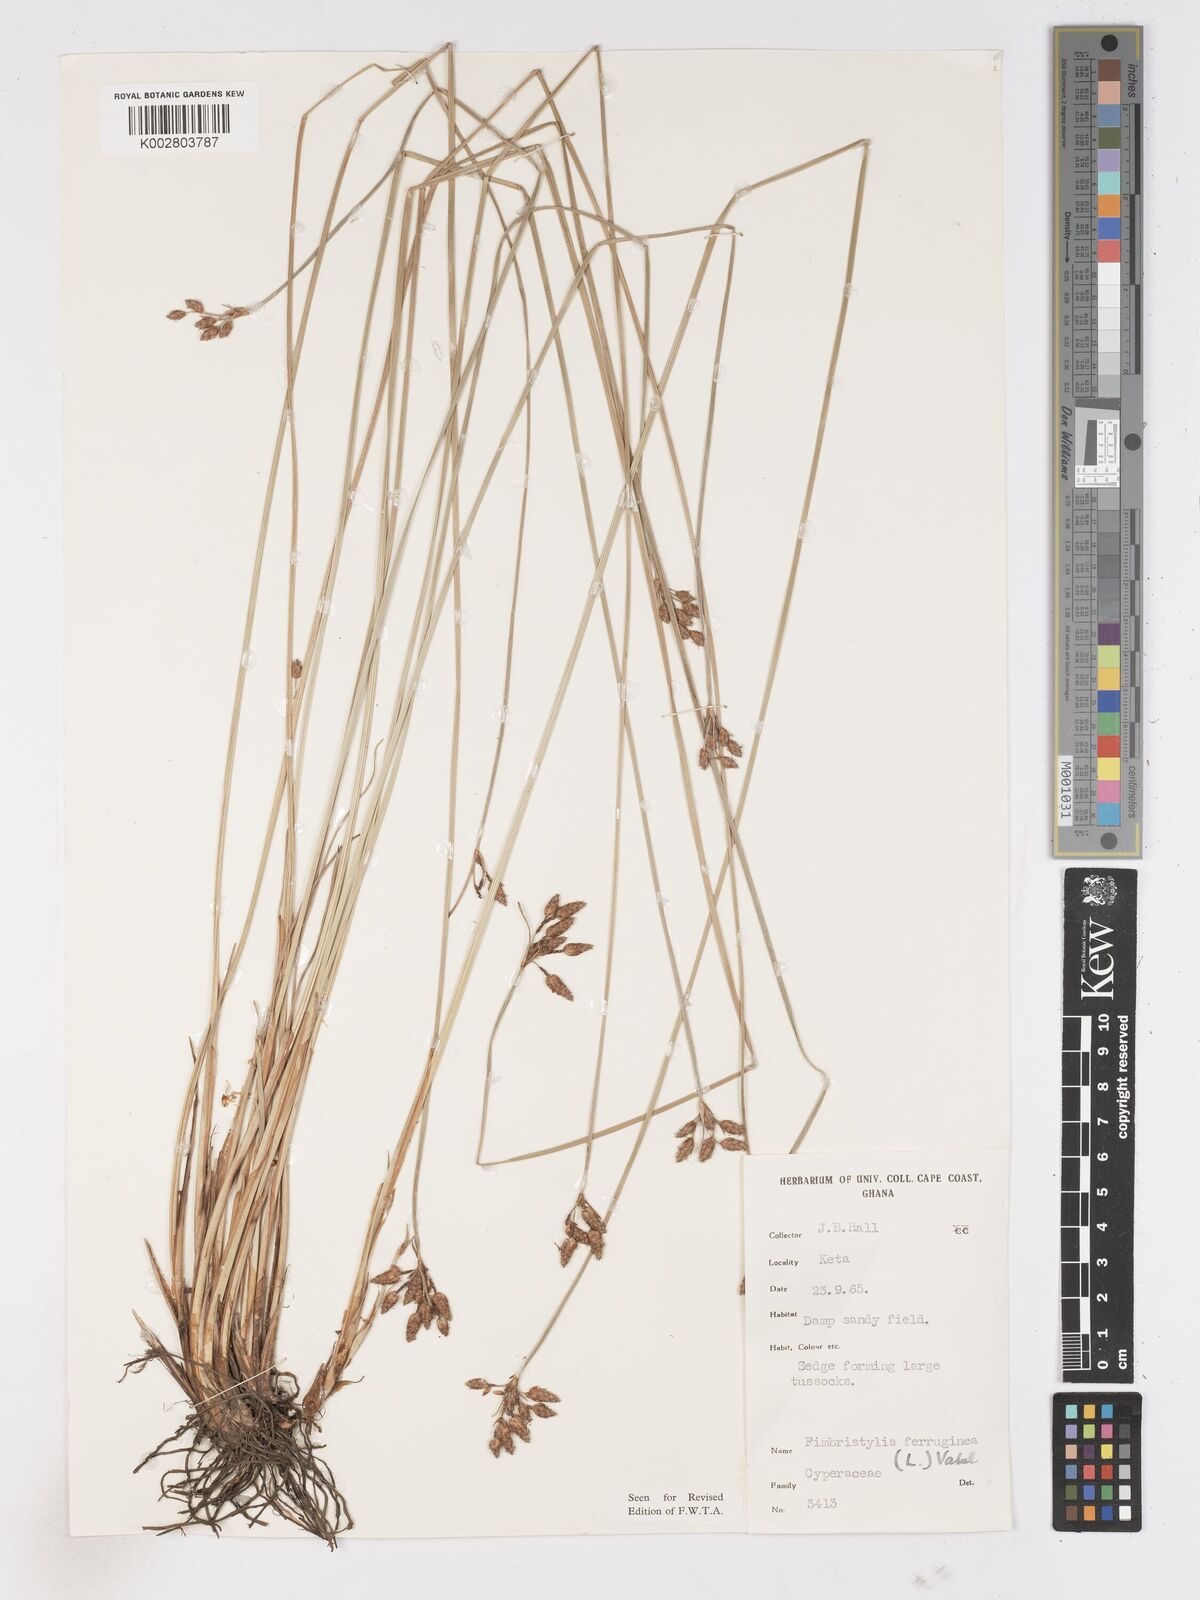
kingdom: Plantae
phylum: Tracheophyta
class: Liliopsida
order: Poales
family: Cyperaceae
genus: Fimbristylis
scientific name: Fimbristylis ferruginea
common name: West indian fimbry
